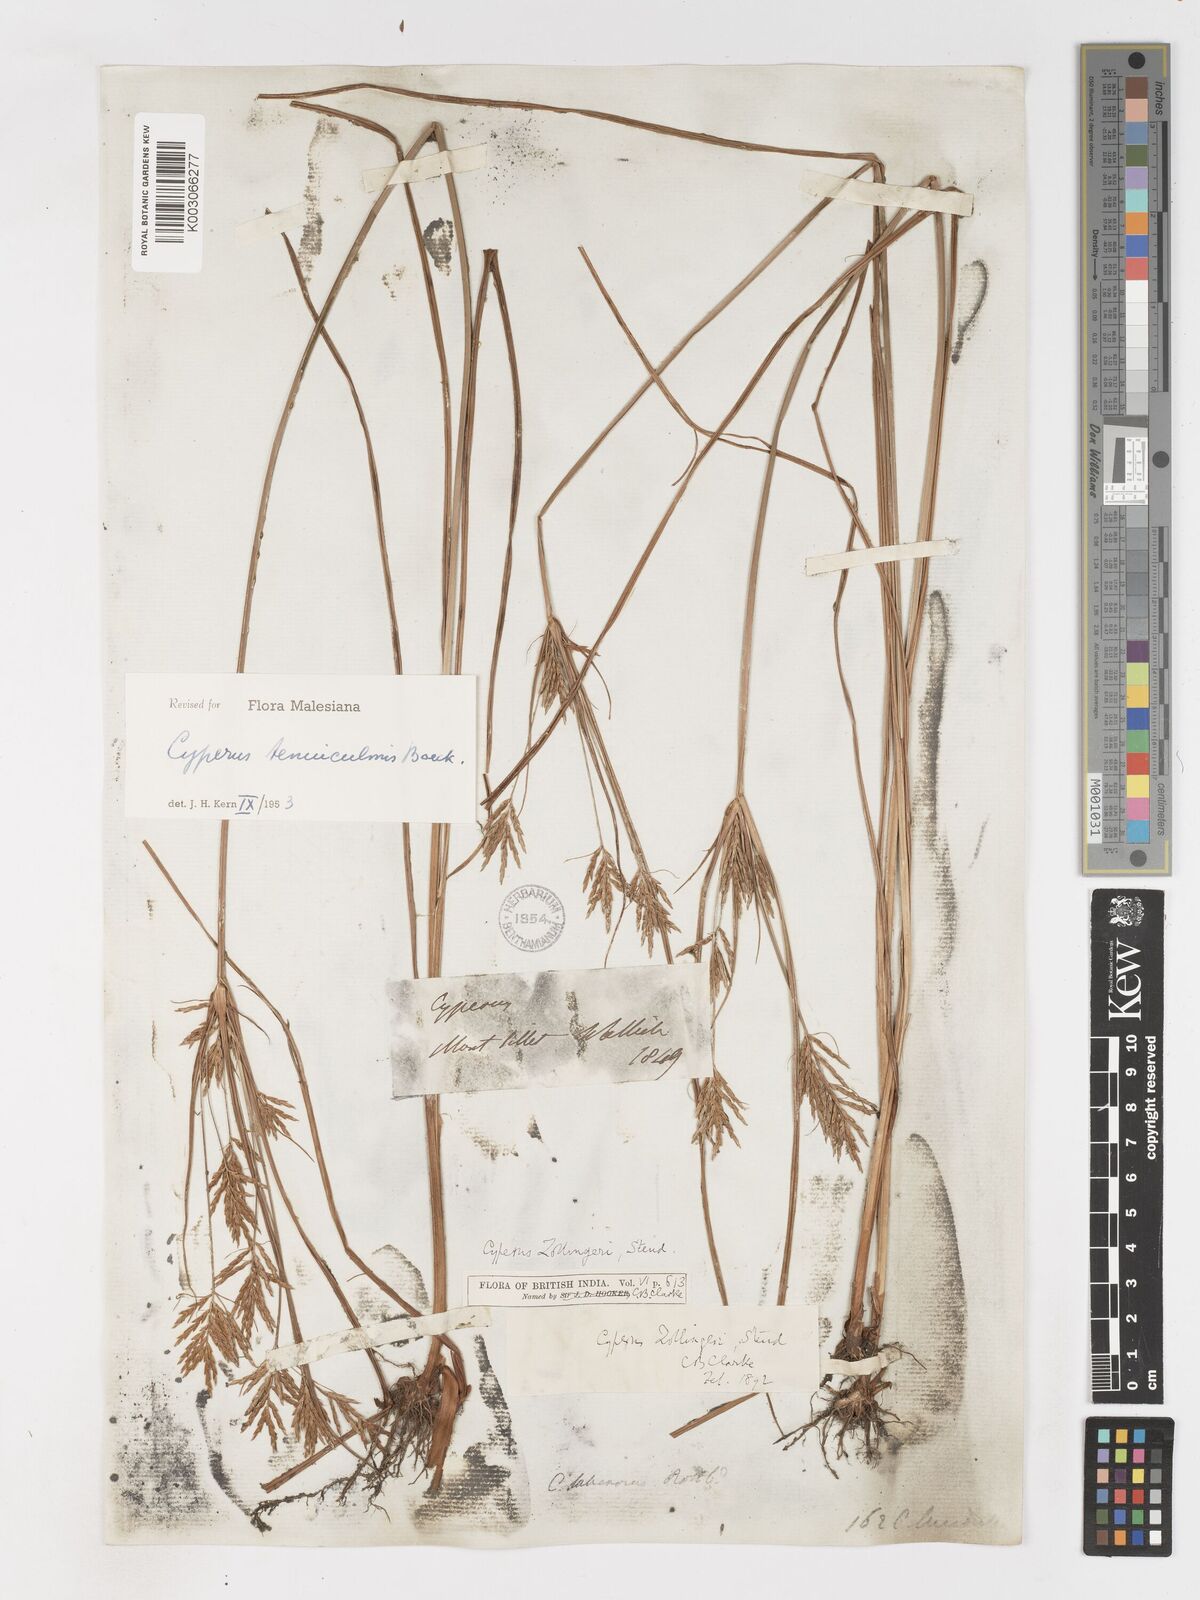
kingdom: Plantae
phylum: Tracheophyta
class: Liliopsida
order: Poales
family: Cyperaceae
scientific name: Cyperaceae
